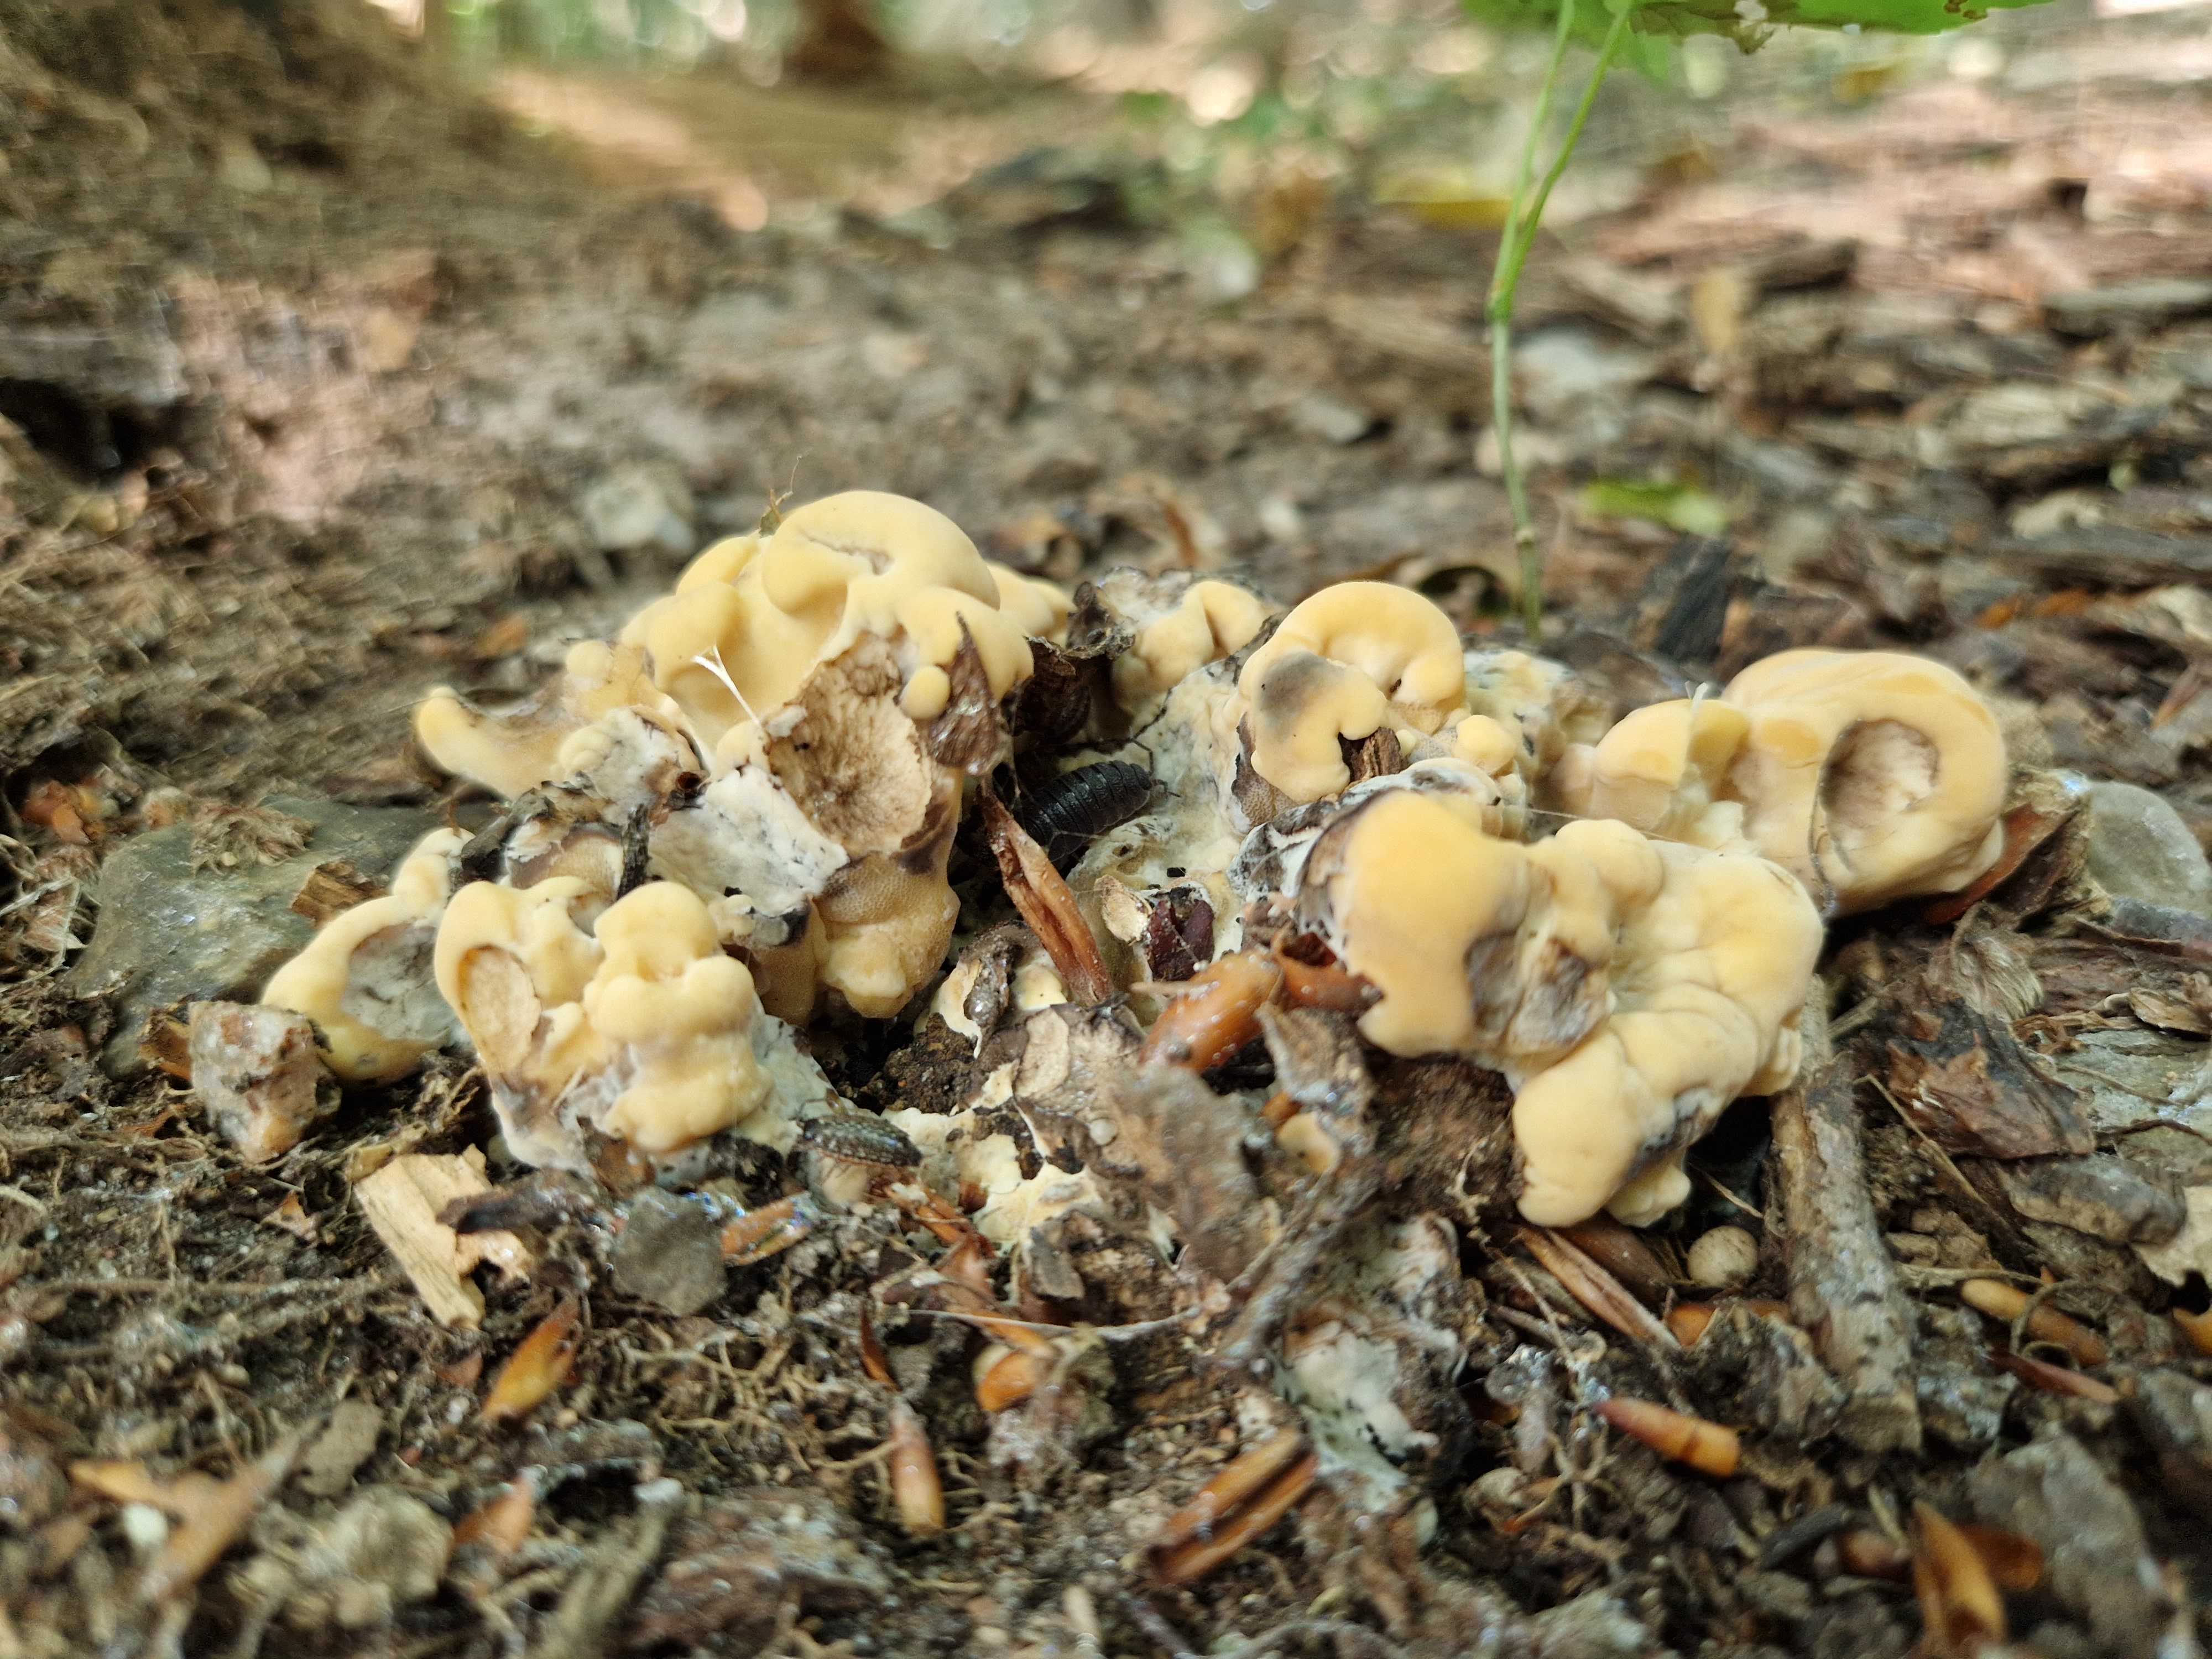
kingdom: Fungi
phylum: Basidiomycota
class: Agaricomycetes
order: Polyporales
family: Meripilaceae
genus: Meripilus
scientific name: Meripilus giganteus
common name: kæmpeporesvamp
